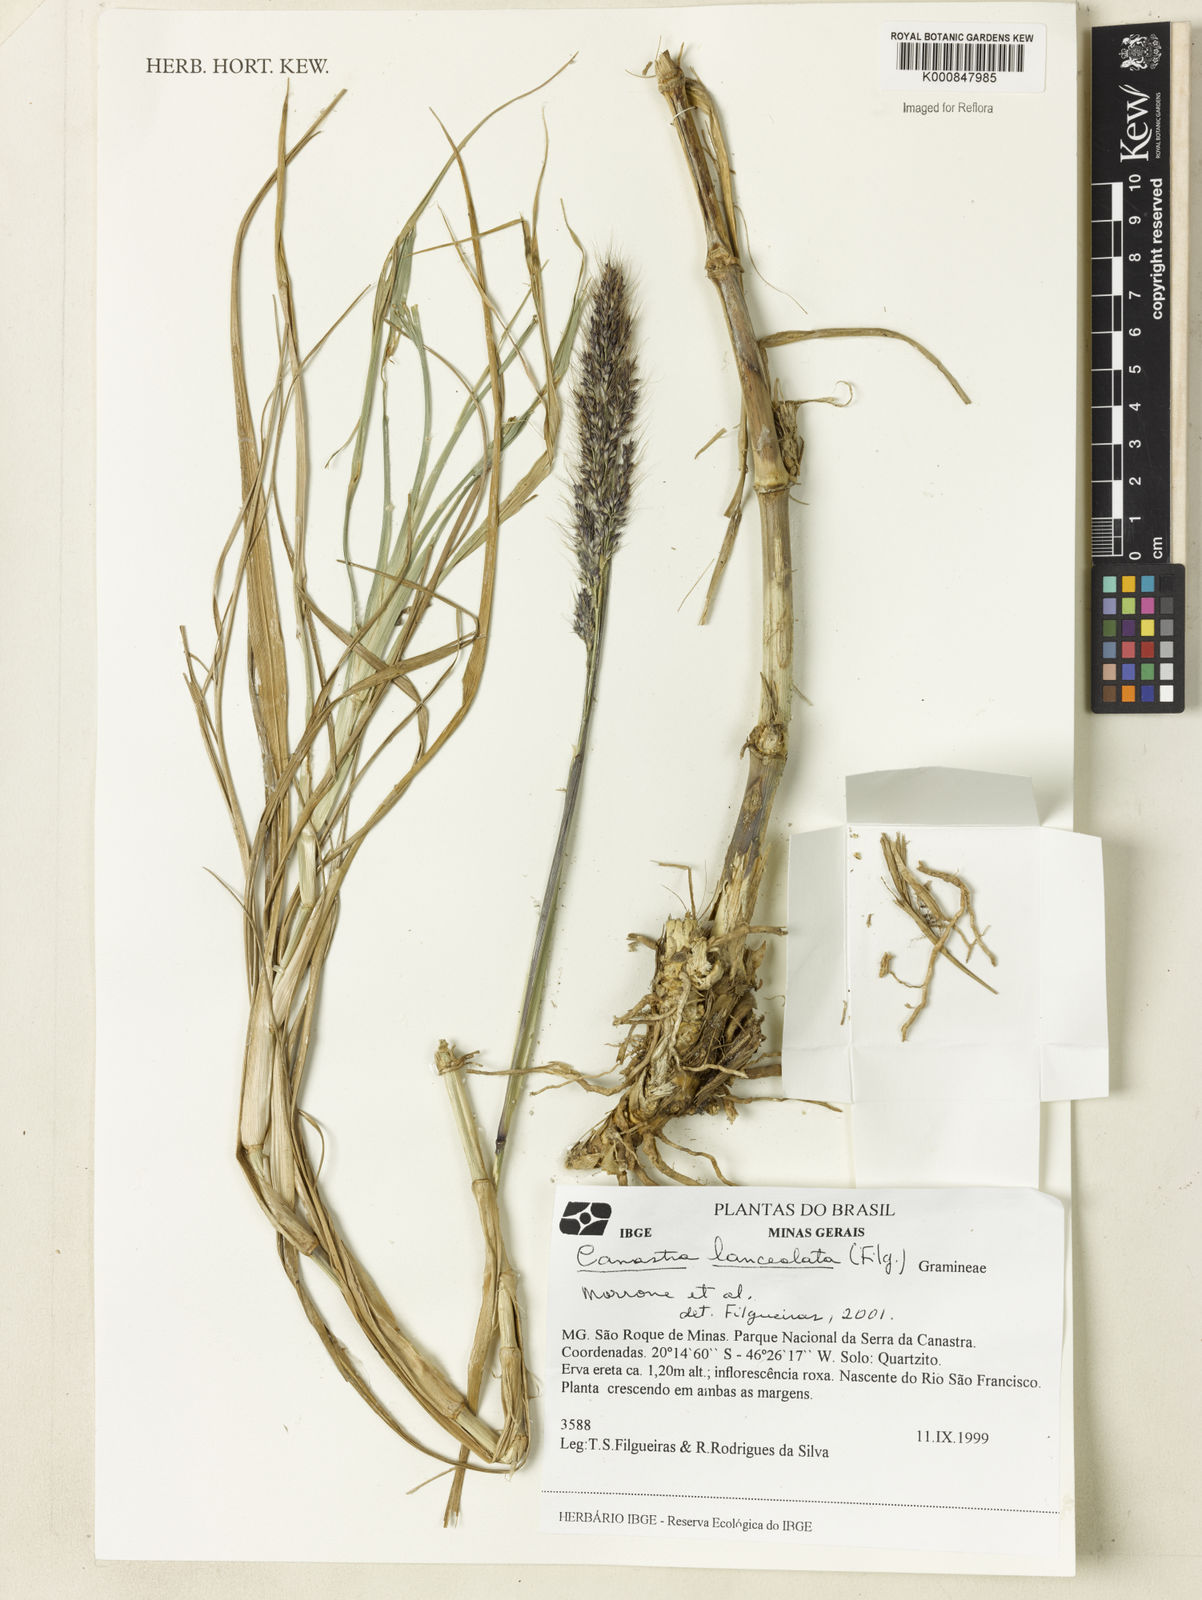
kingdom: Plantae
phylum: Tracheophyta
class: Liliopsida
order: Poales
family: Poaceae
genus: Canastra
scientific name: Canastra lanceolata
